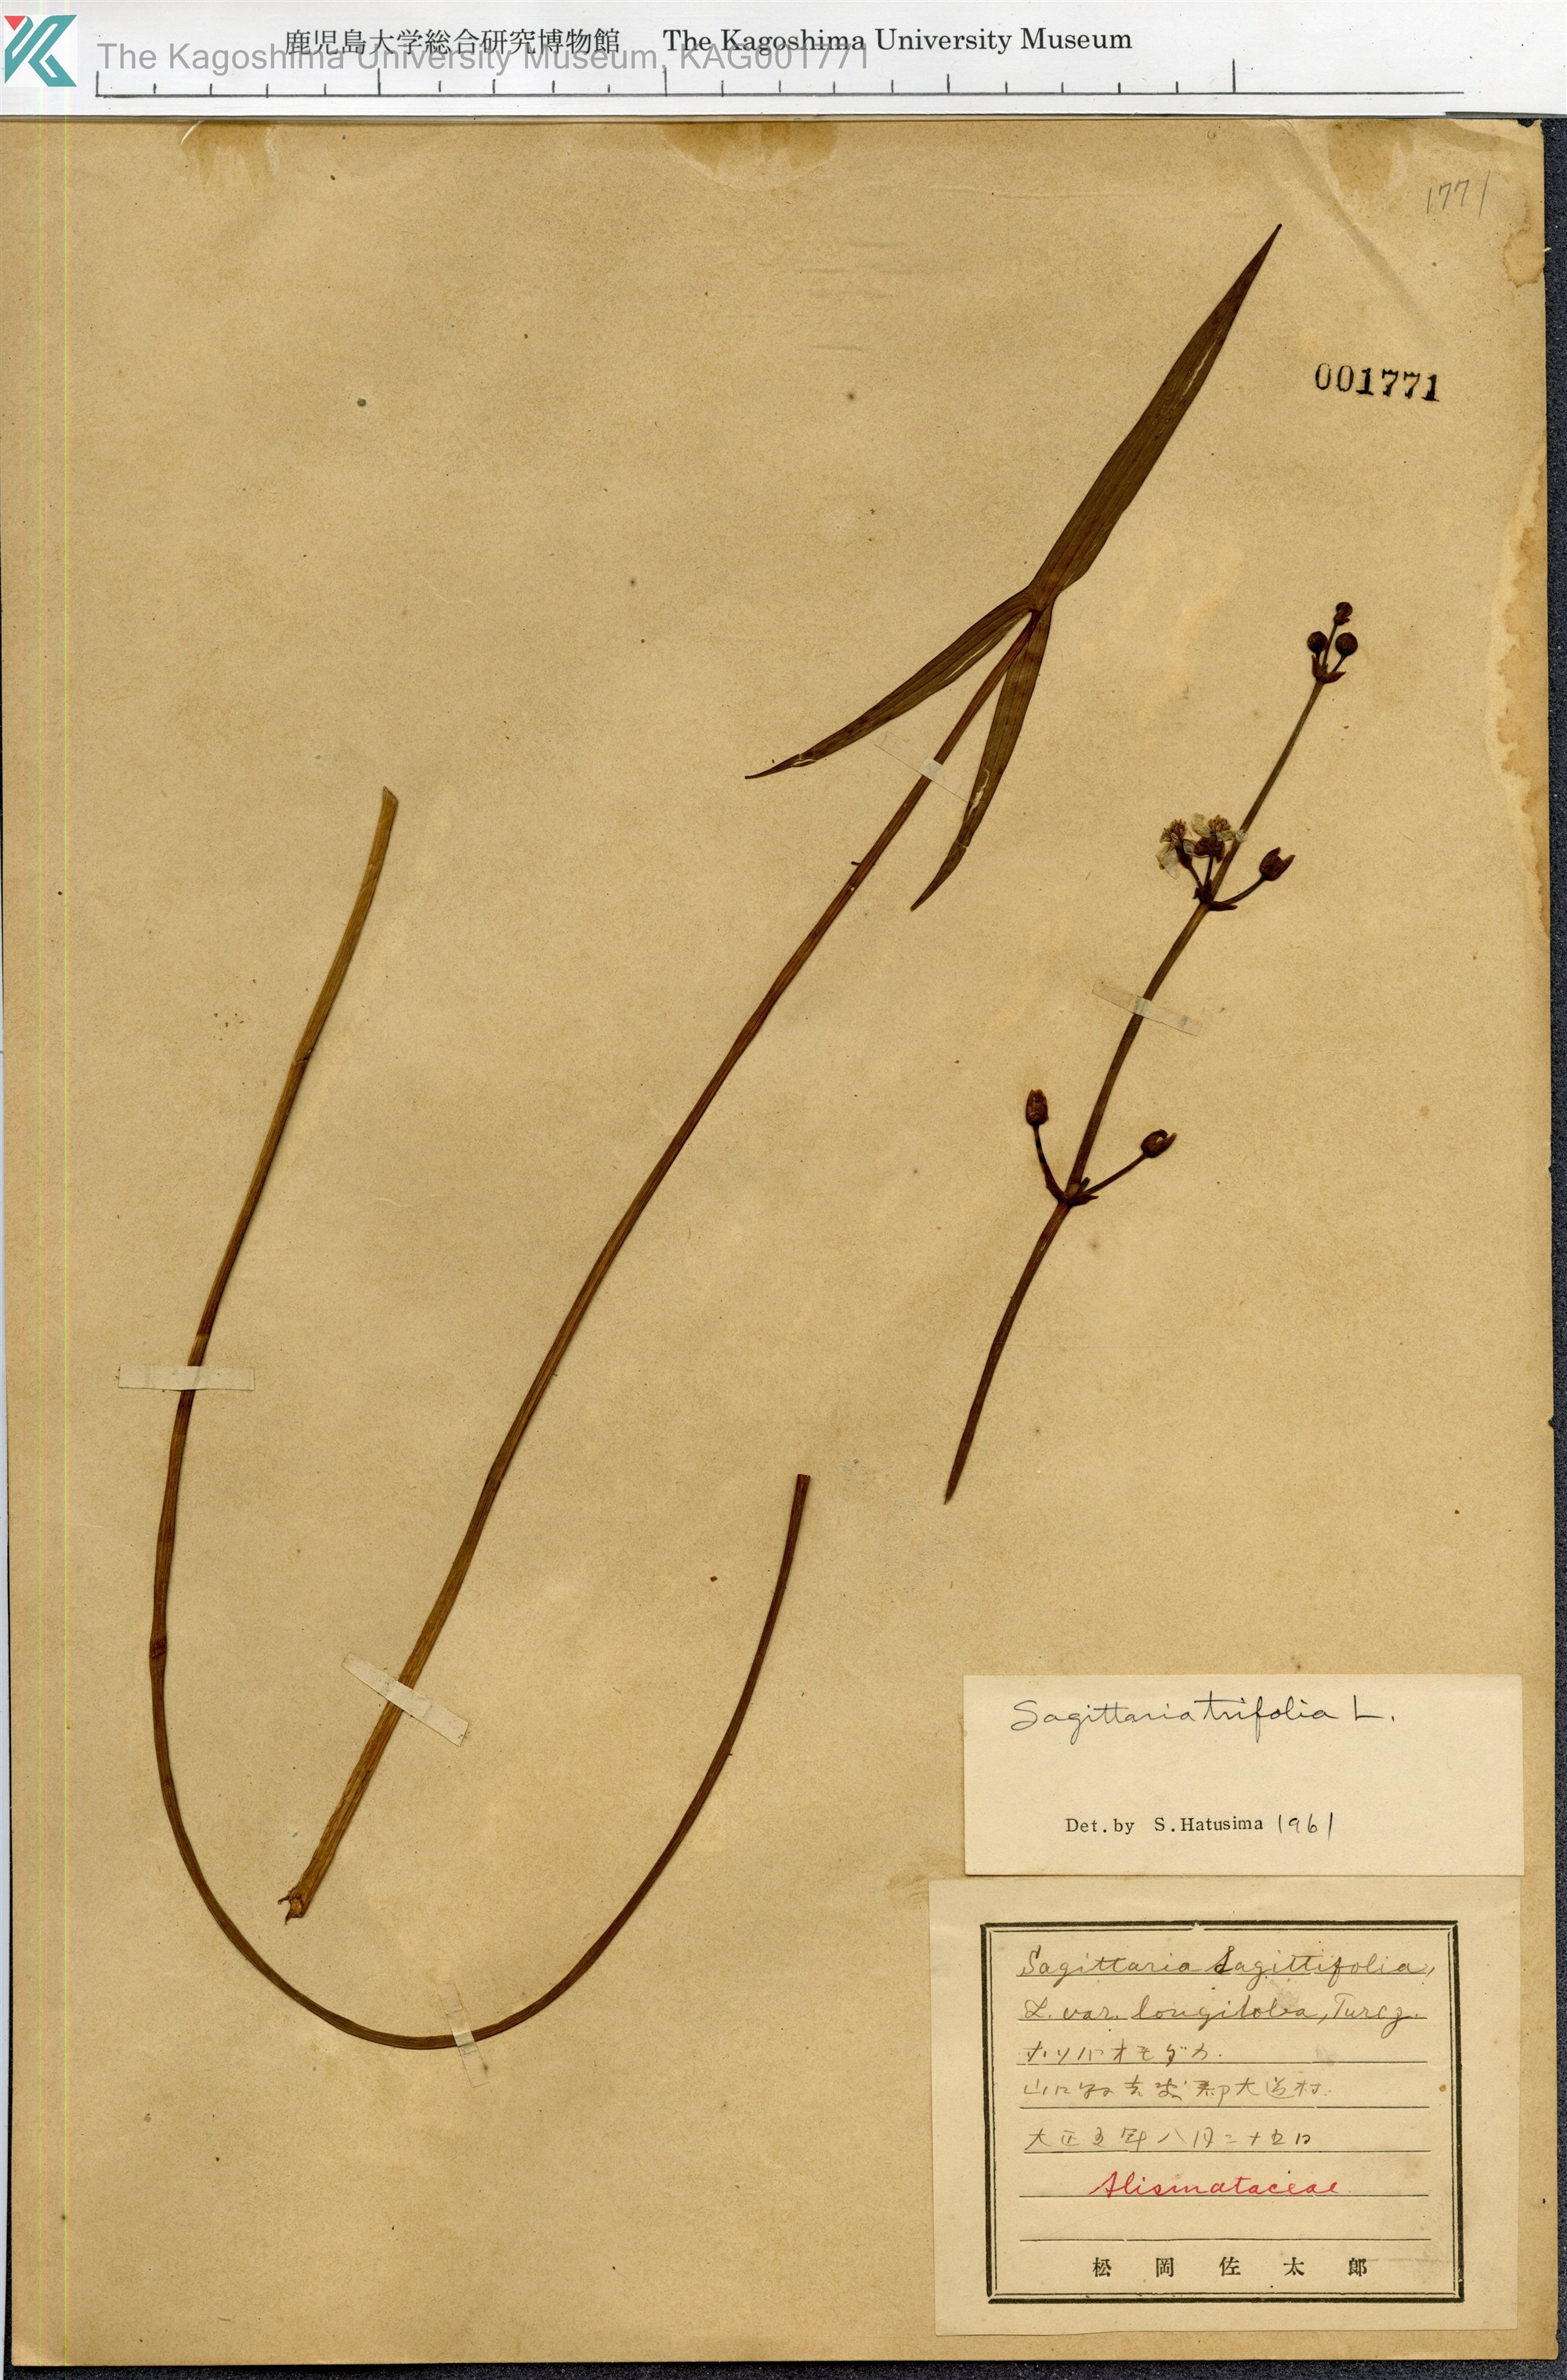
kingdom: Plantae
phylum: Tracheophyta
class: Liliopsida
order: Alismatales
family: Alismataceae
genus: Sagittaria
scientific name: Sagittaria trifolia
